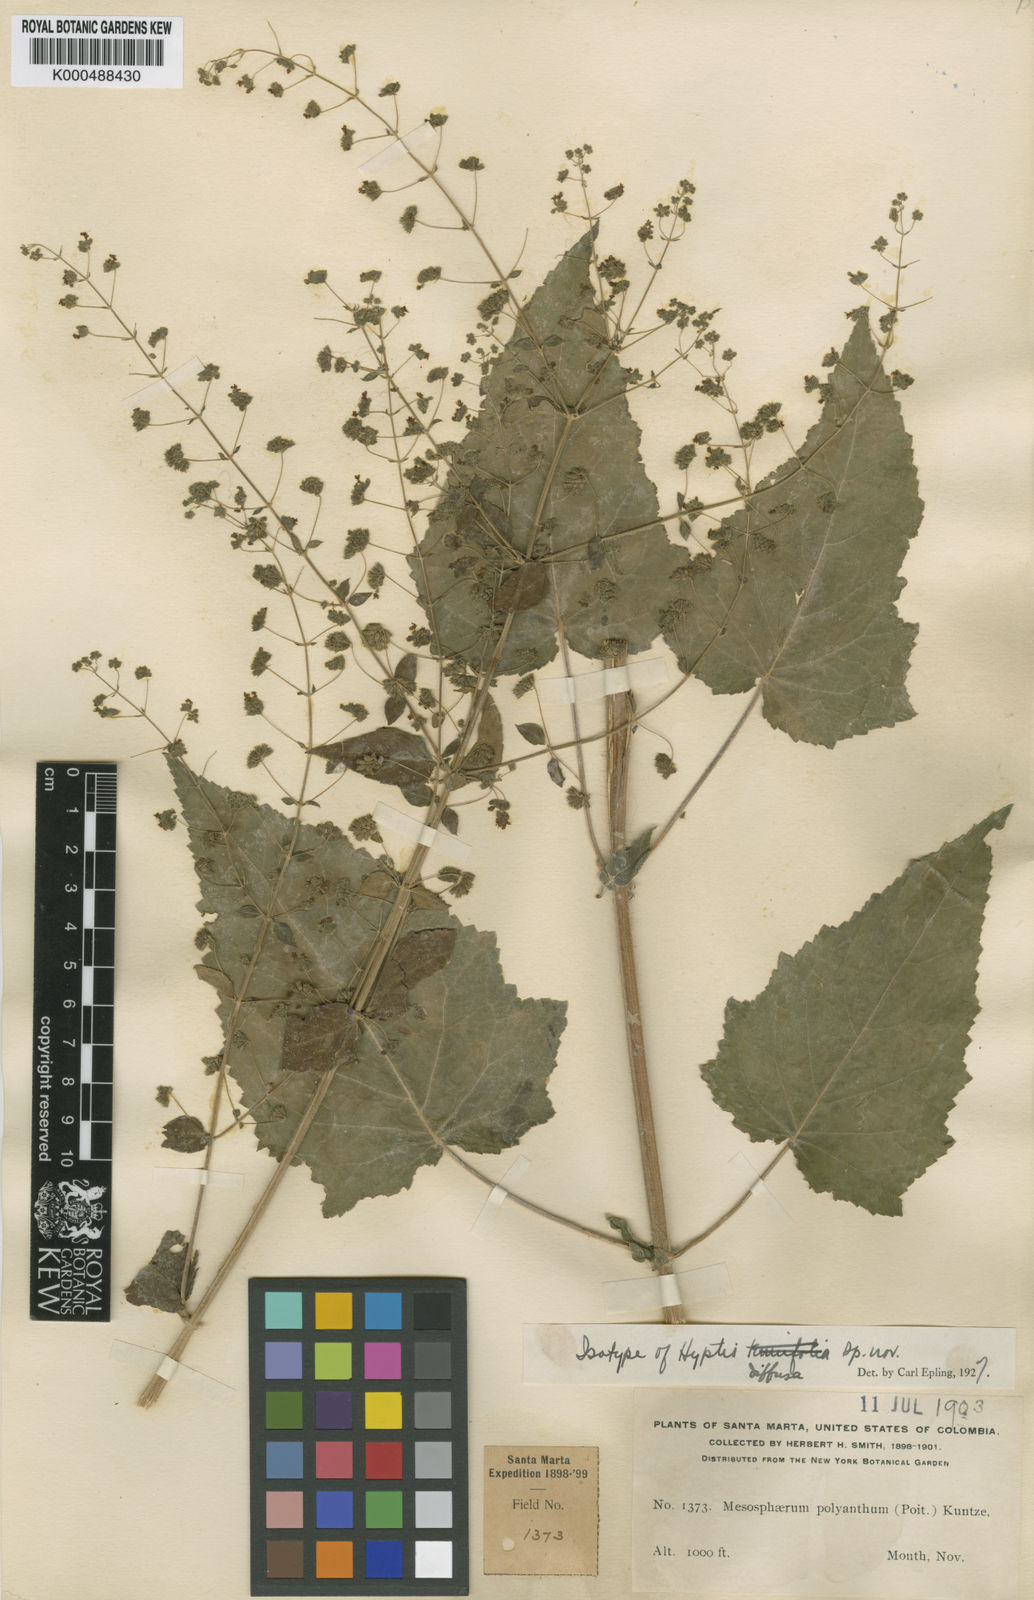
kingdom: Plantae
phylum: Tracheophyta
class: Magnoliopsida
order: Lamiales
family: Lamiaceae
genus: Mesosphaerum
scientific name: Mesosphaerum diffusum
